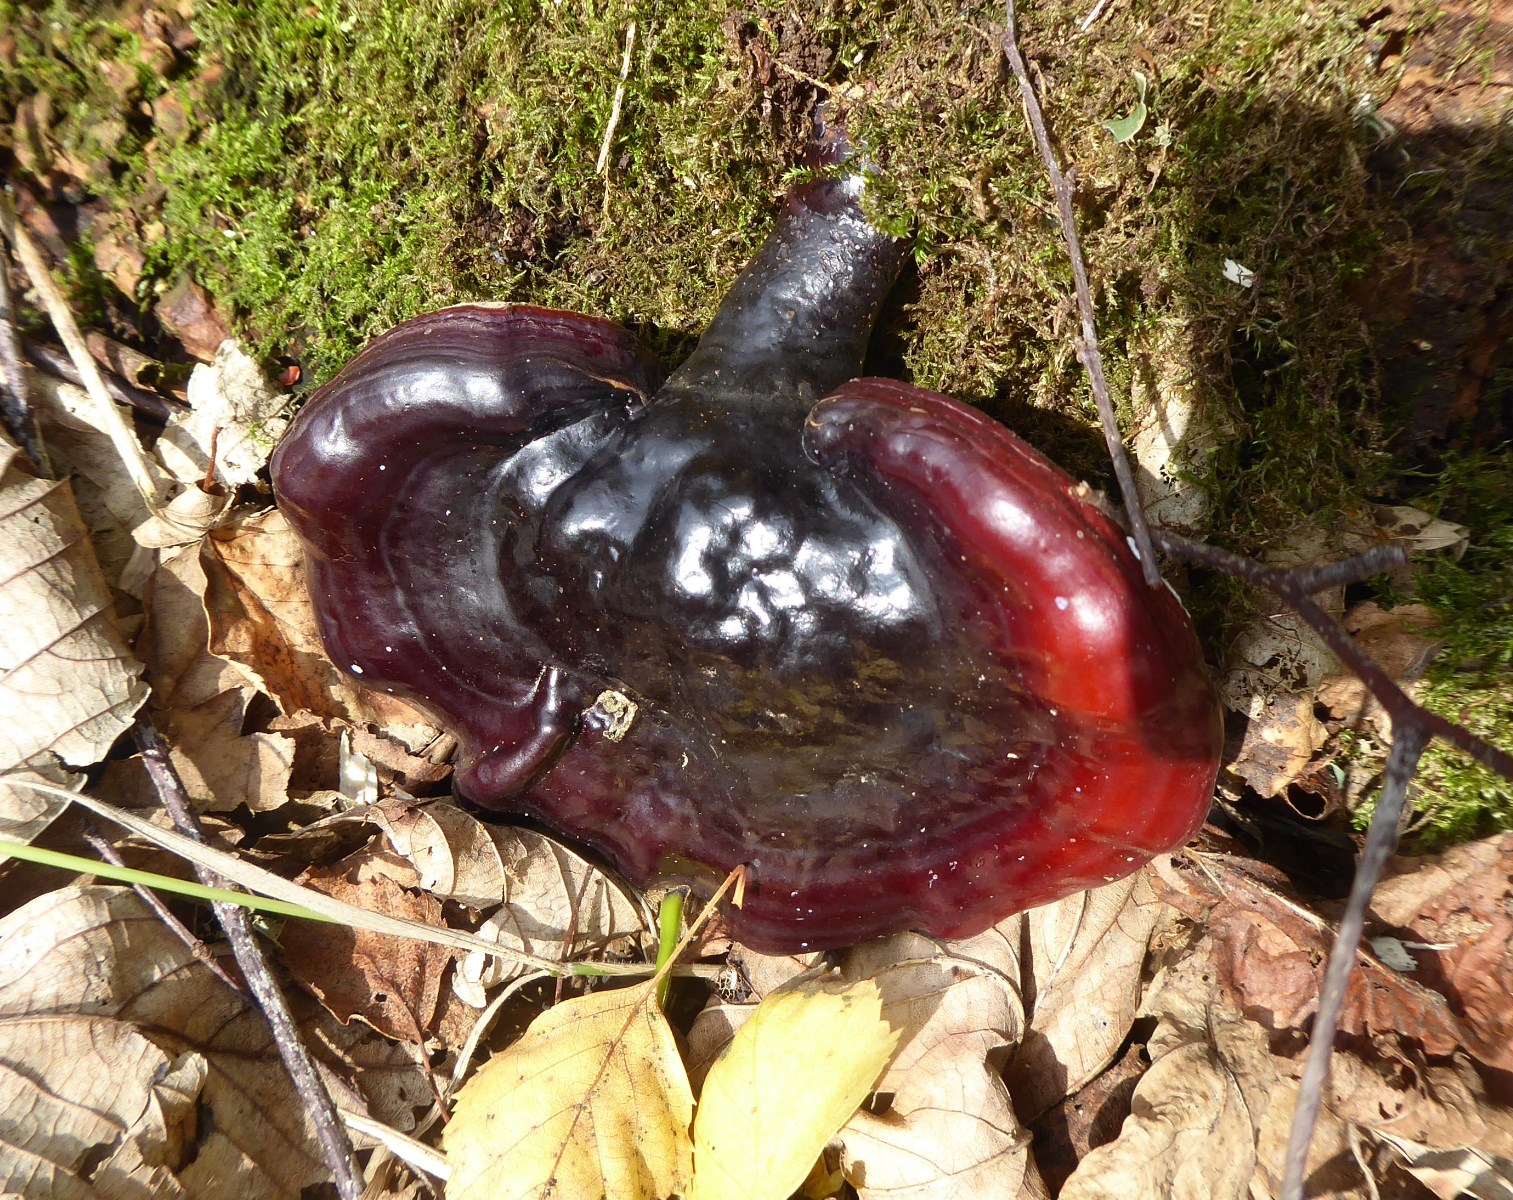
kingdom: Fungi
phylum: Basidiomycota
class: Agaricomycetes
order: Polyporales
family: Polyporaceae
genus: Ganoderma
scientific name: Ganoderma lucidum
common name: skinnende lakporesvamp
